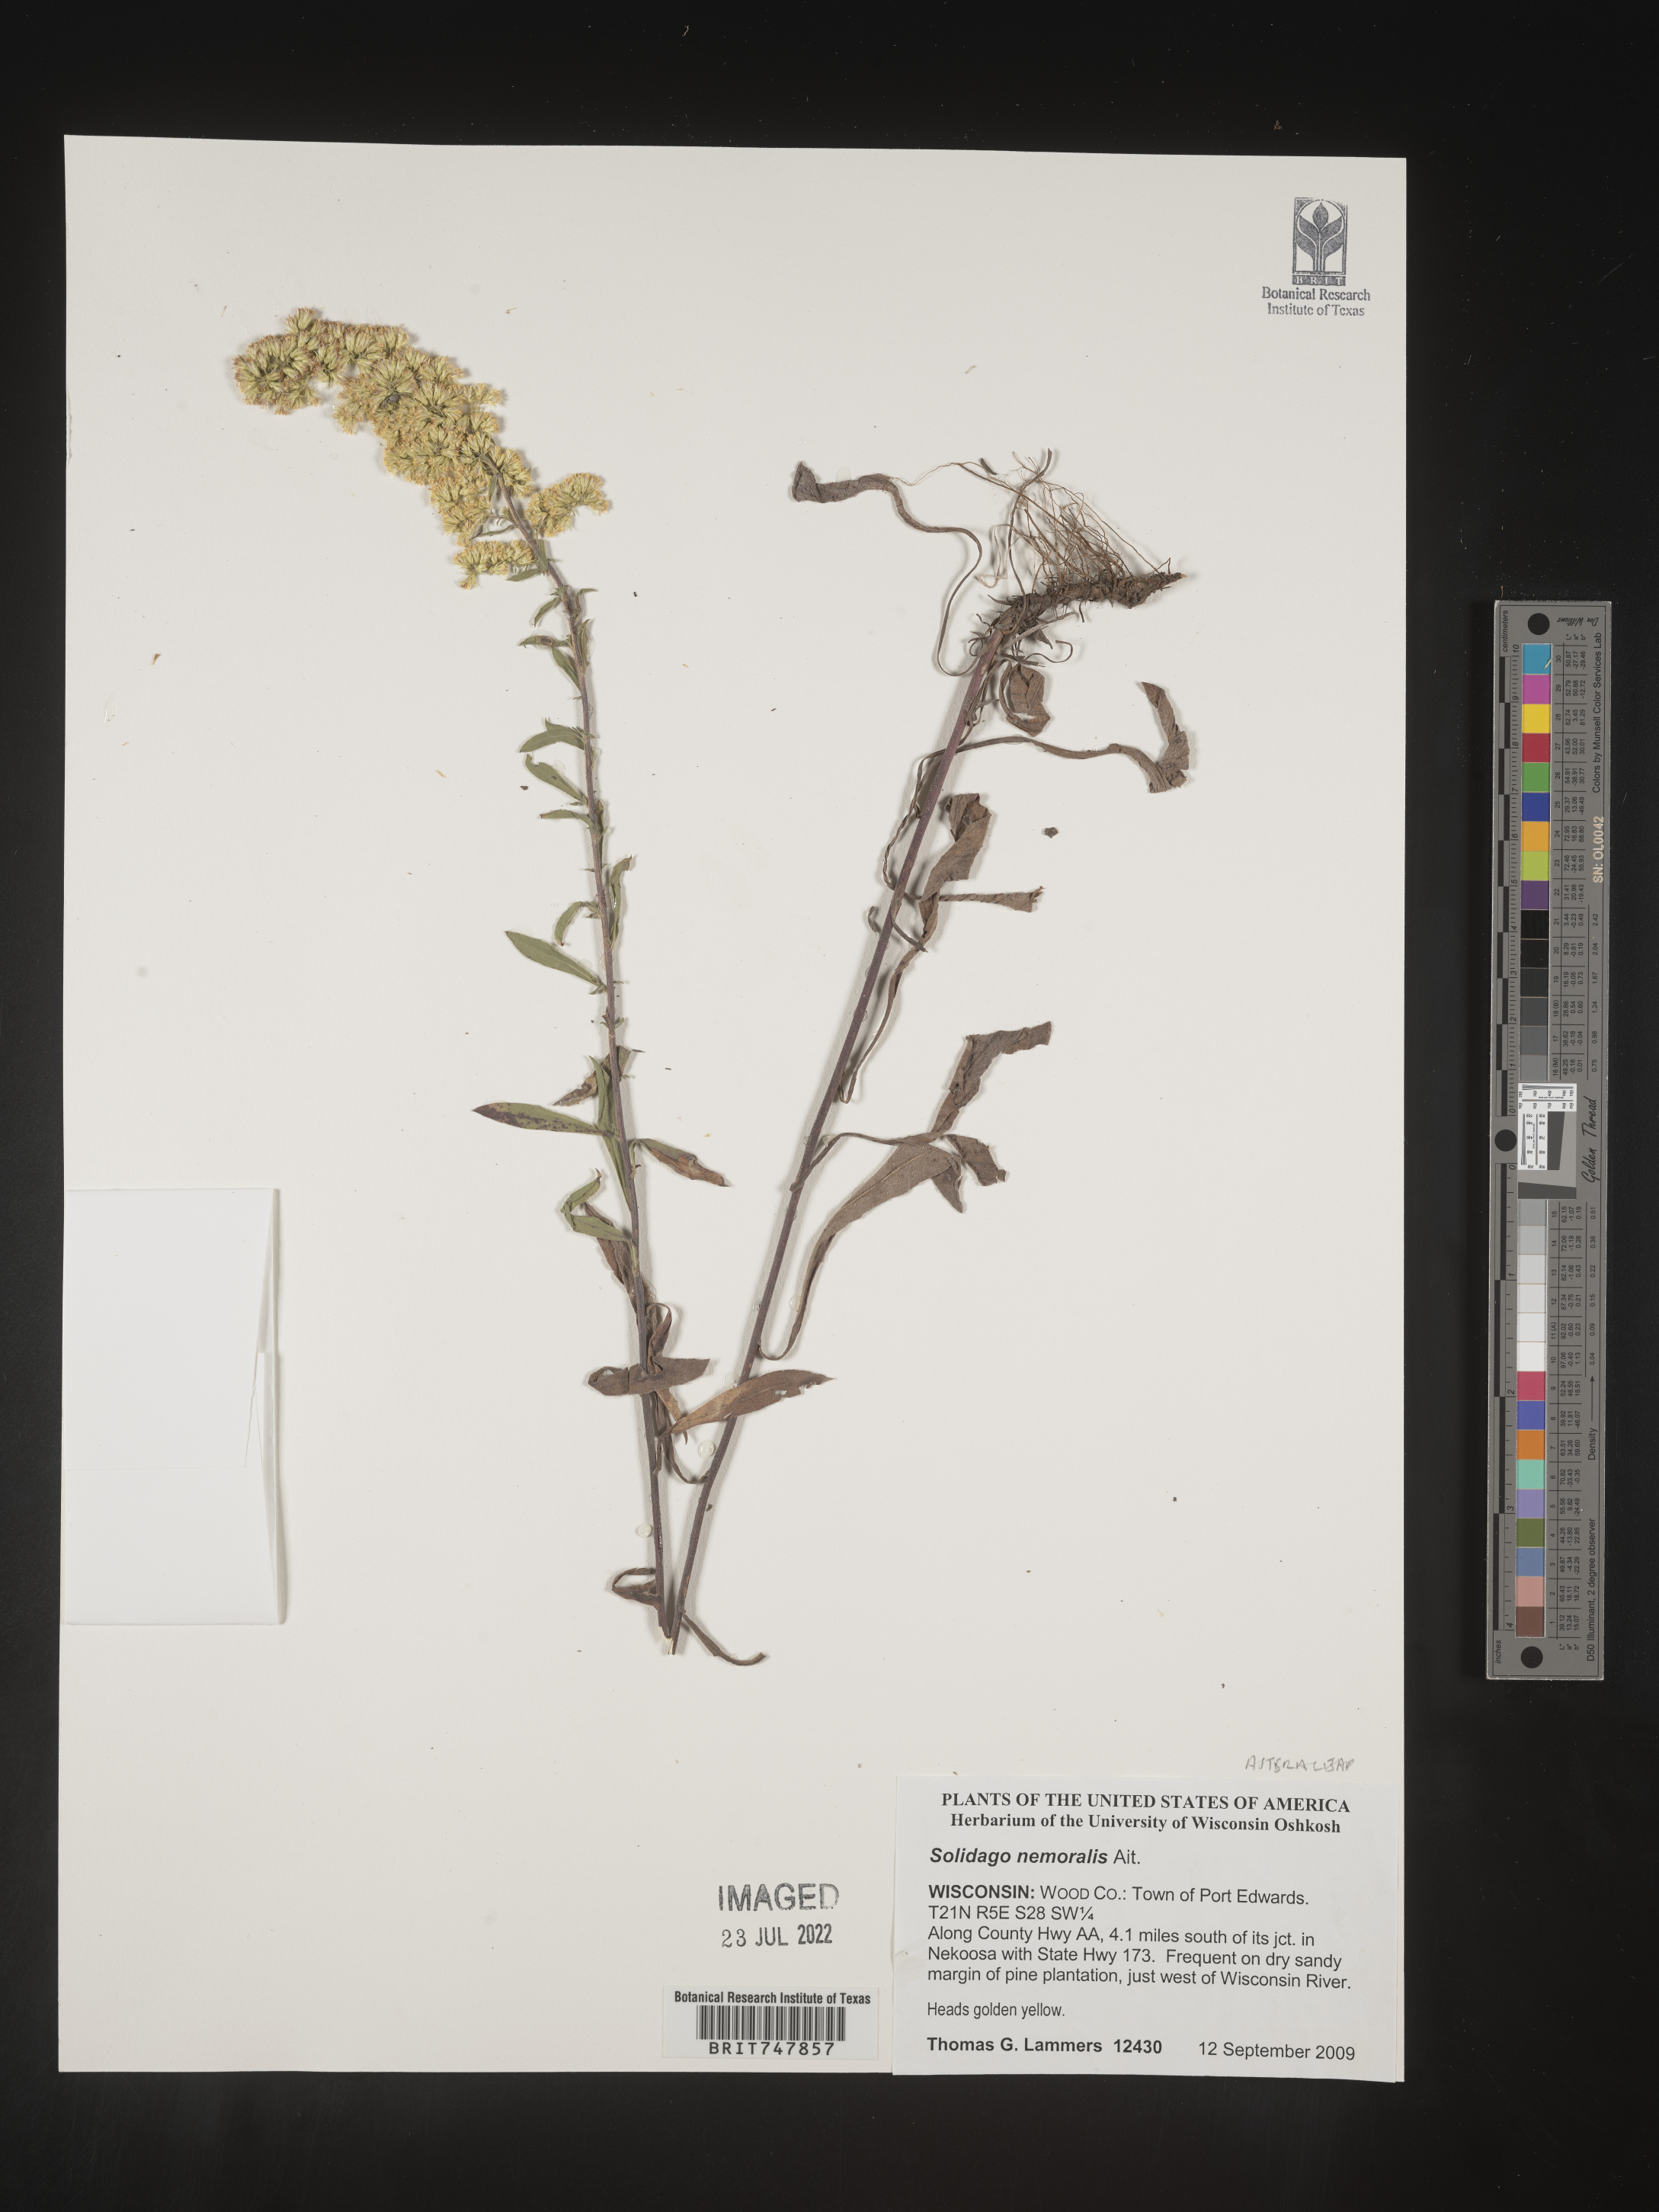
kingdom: Plantae
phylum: Tracheophyta
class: Magnoliopsida
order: Asterales
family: Asteraceae
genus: Solidago
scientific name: Solidago nemoralis
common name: Grey goldenrod
